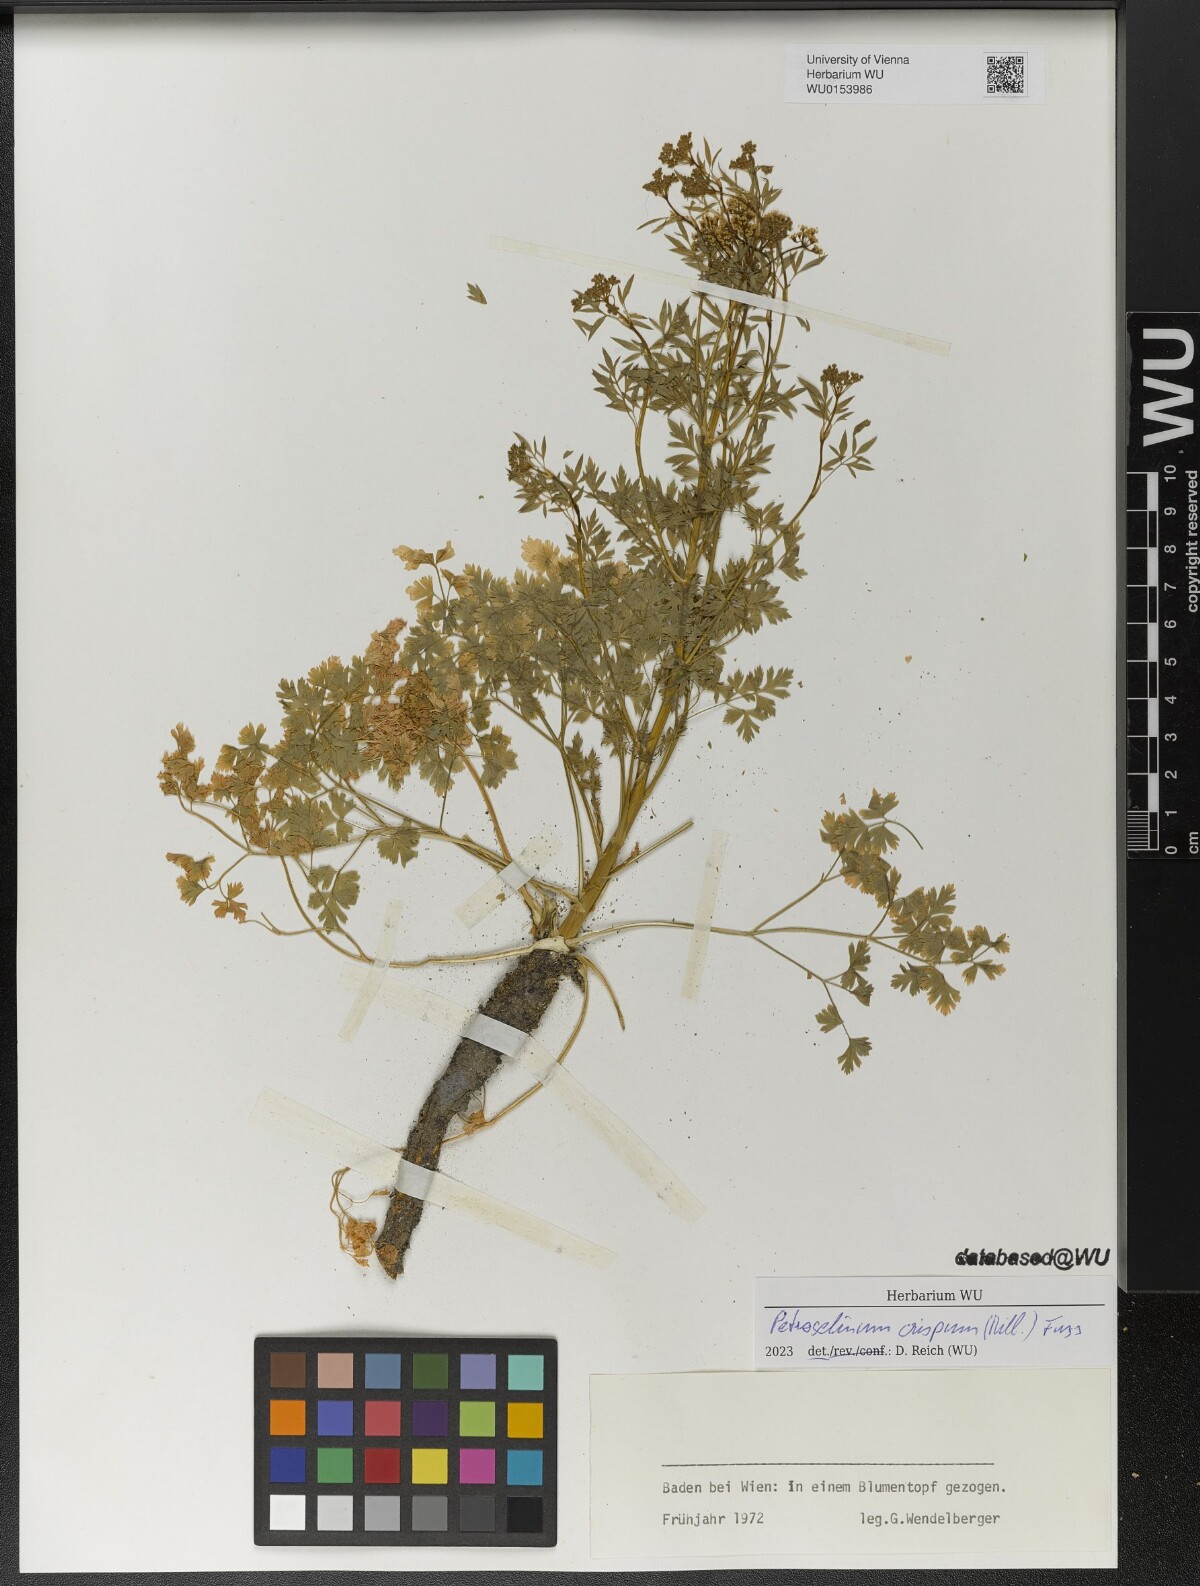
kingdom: Plantae
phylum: Tracheophyta
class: Magnoliopsida
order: Apiales
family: Apiaceae
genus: Petroselinum
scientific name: Petroselinum crispum
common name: Parsley
